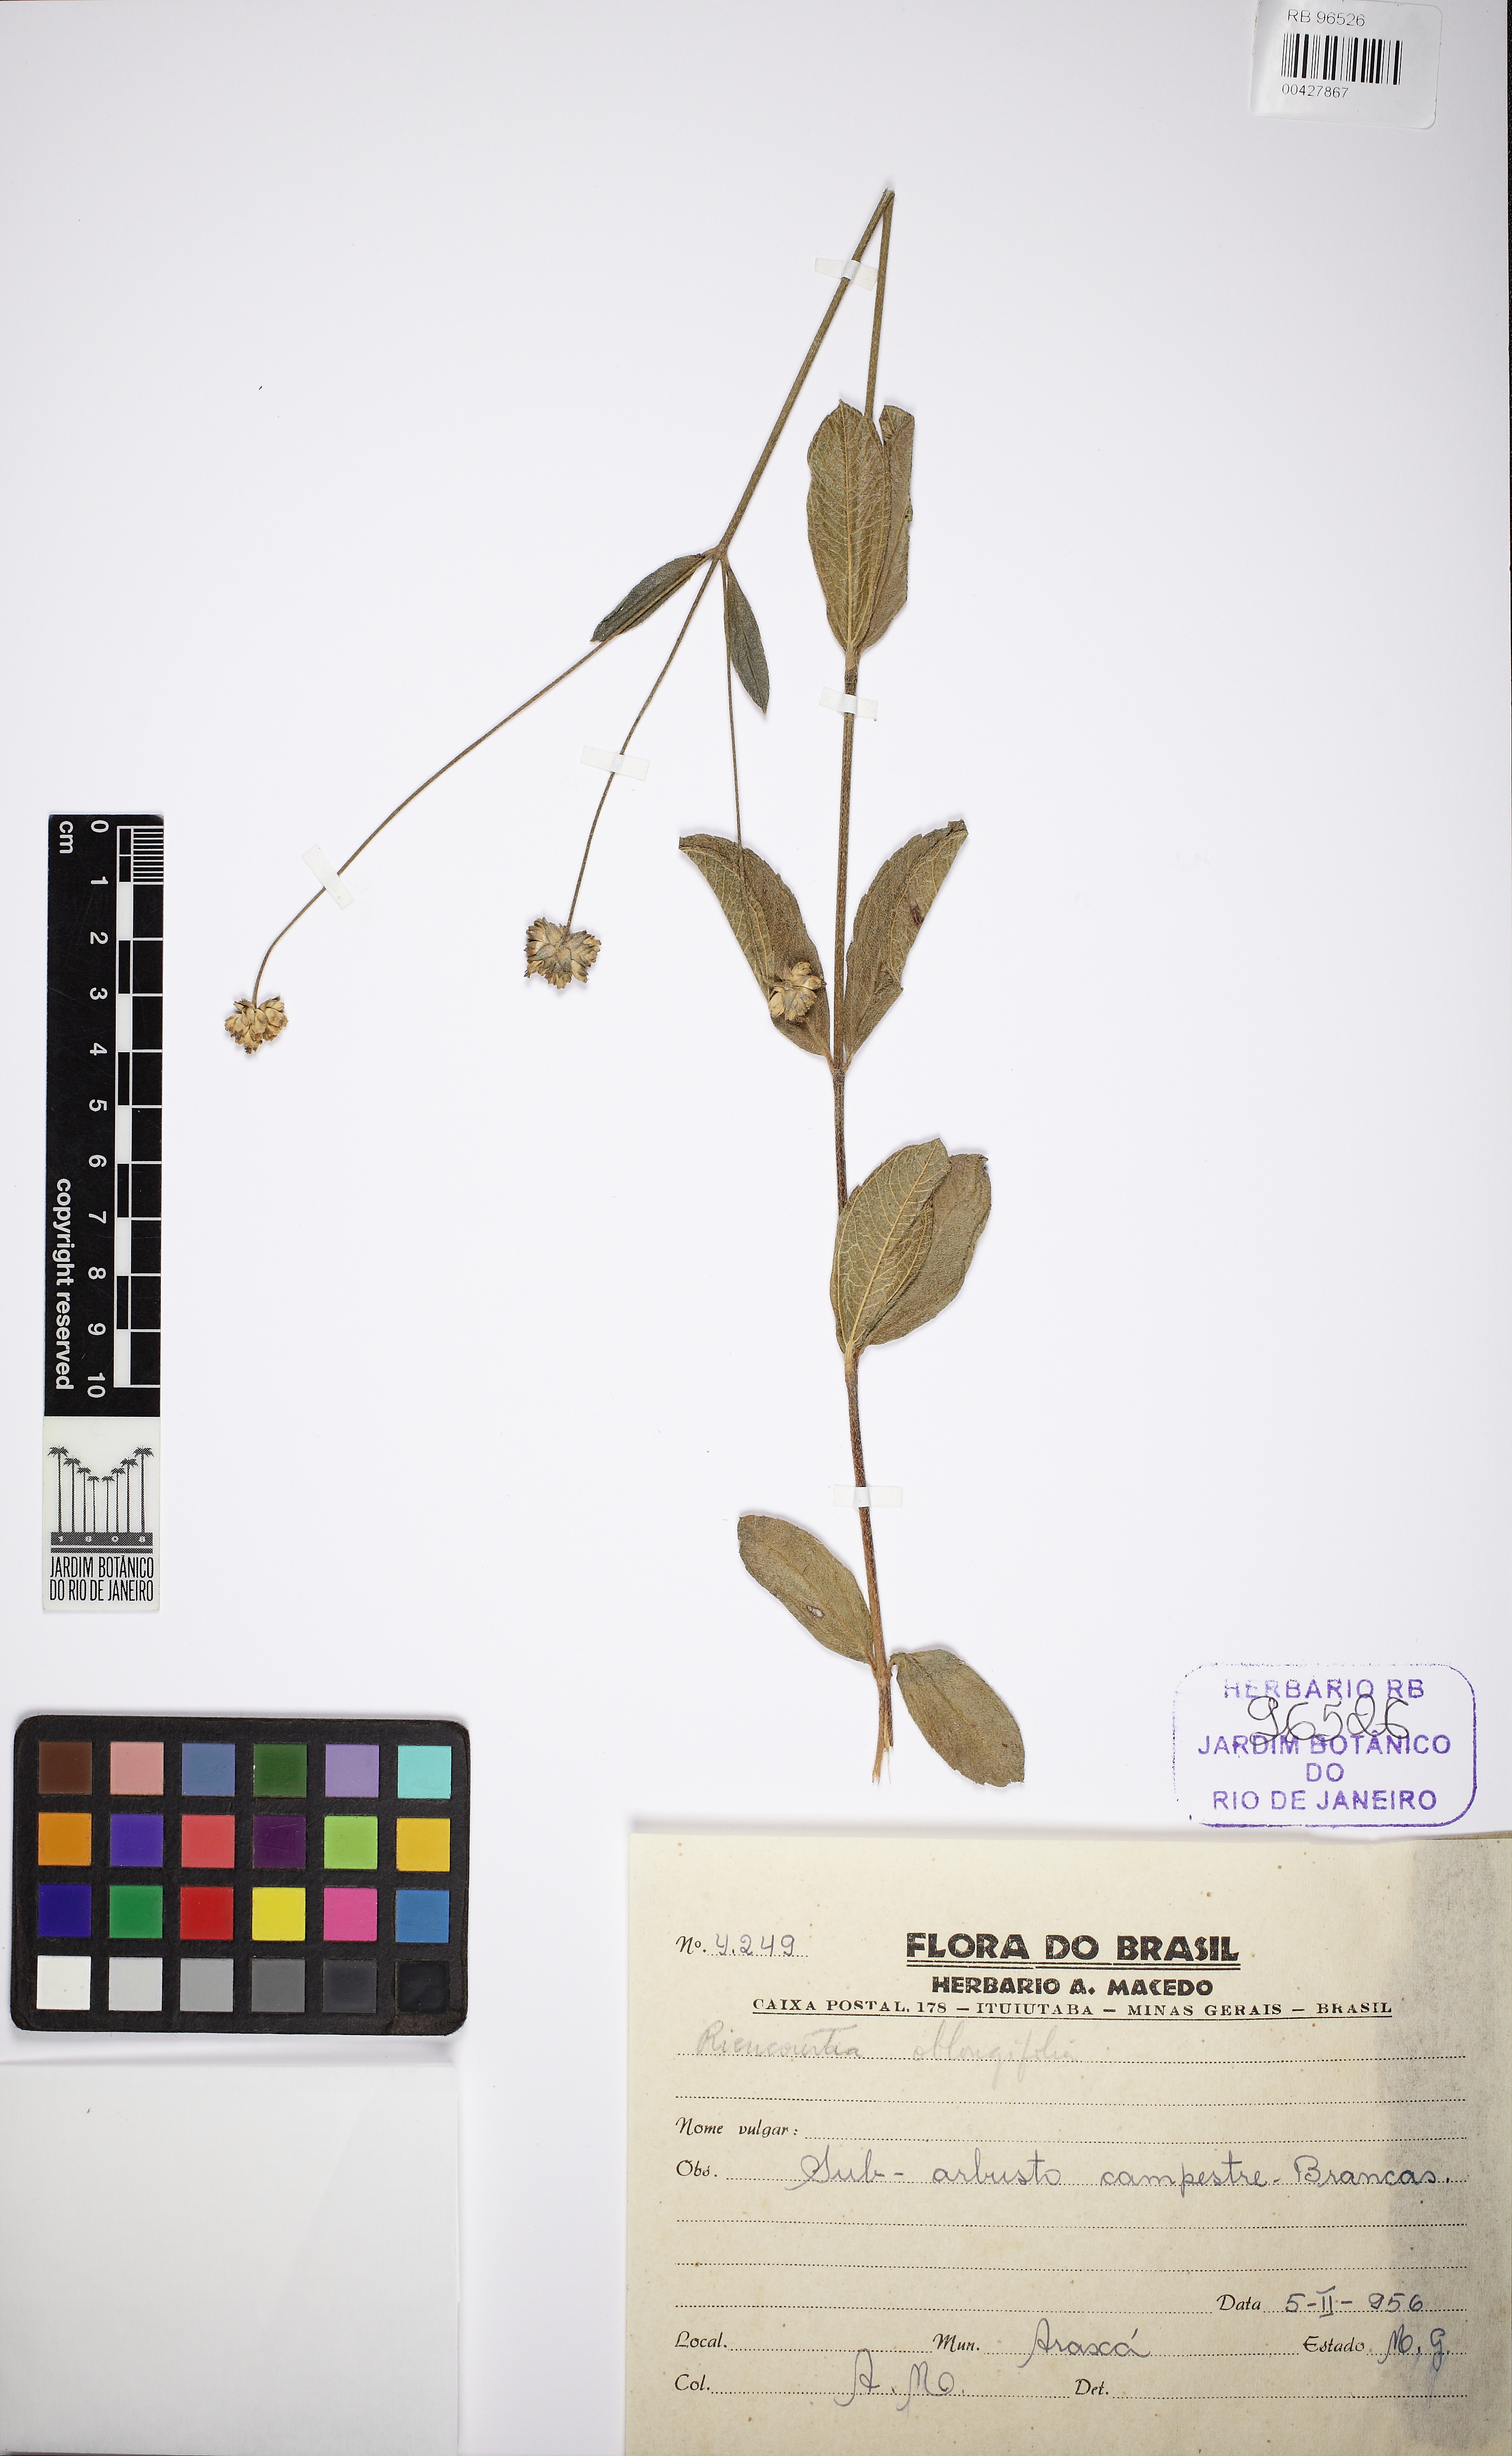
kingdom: Plantae
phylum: Tracheophyta
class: Magnoliopsida
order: Asterales
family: Asteraceae
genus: Riencourtia
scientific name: Riencourtia oblongifolia
